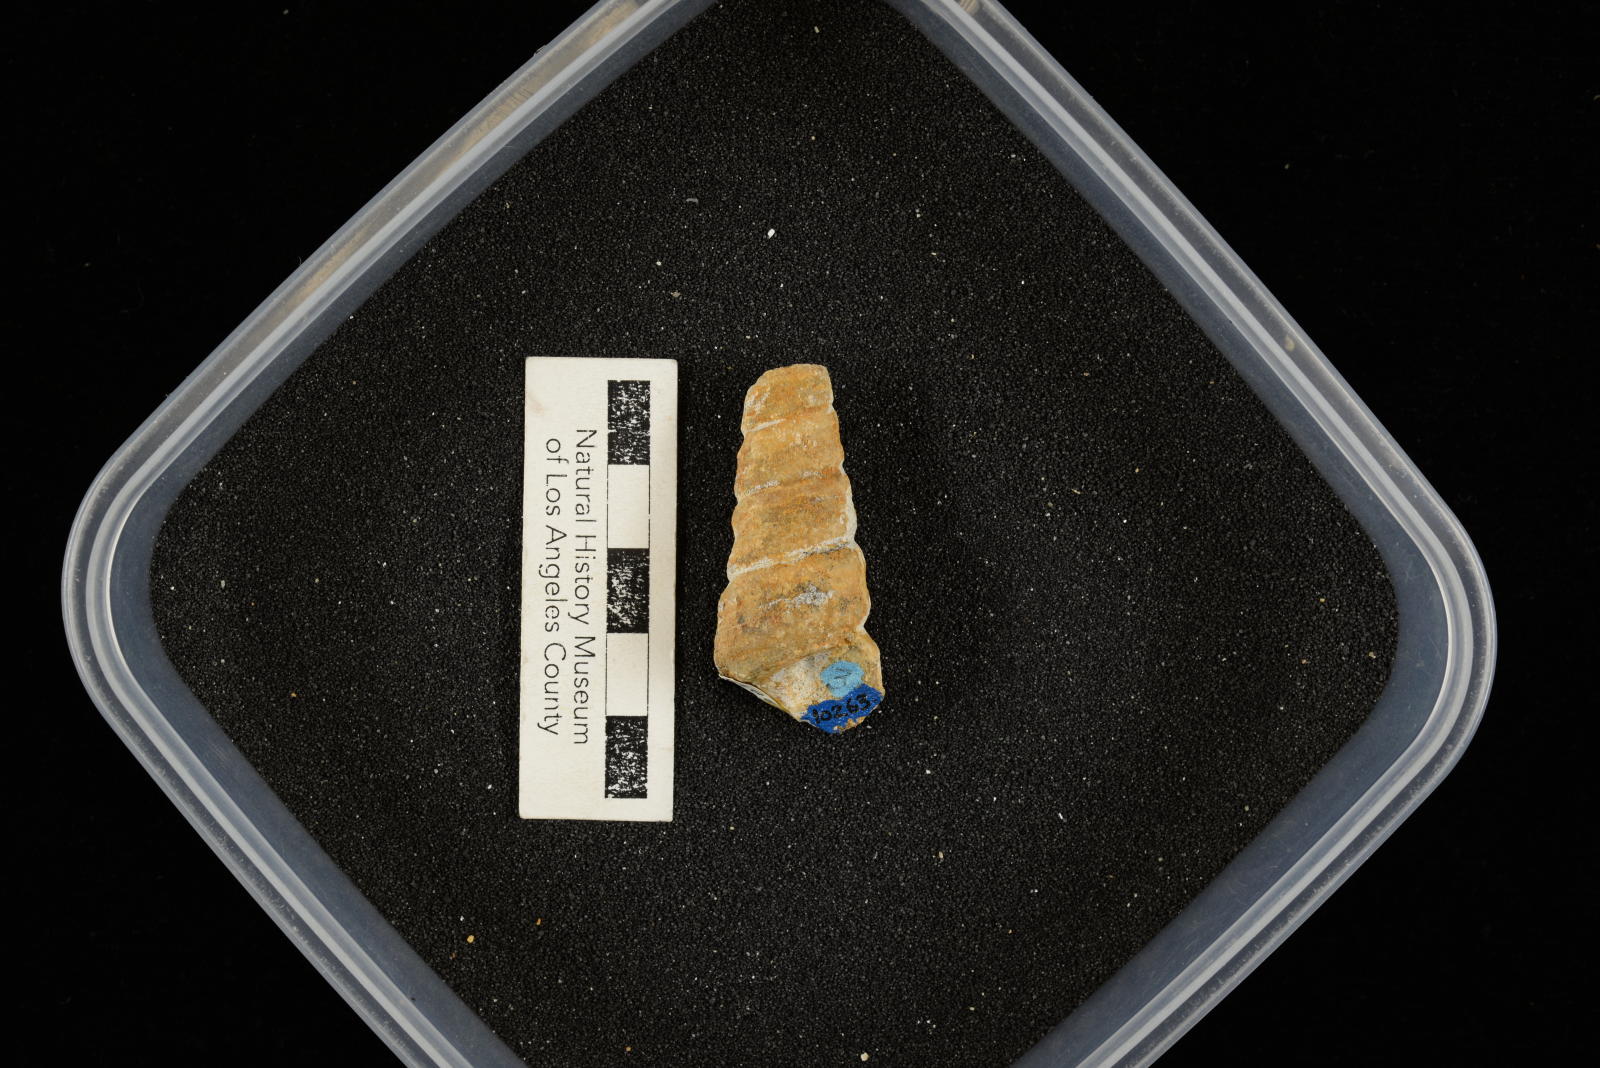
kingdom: Animalia
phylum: Mollusca
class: Gastropoda
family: Turritellidae
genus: Turritella
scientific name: Turritella chaneyi
